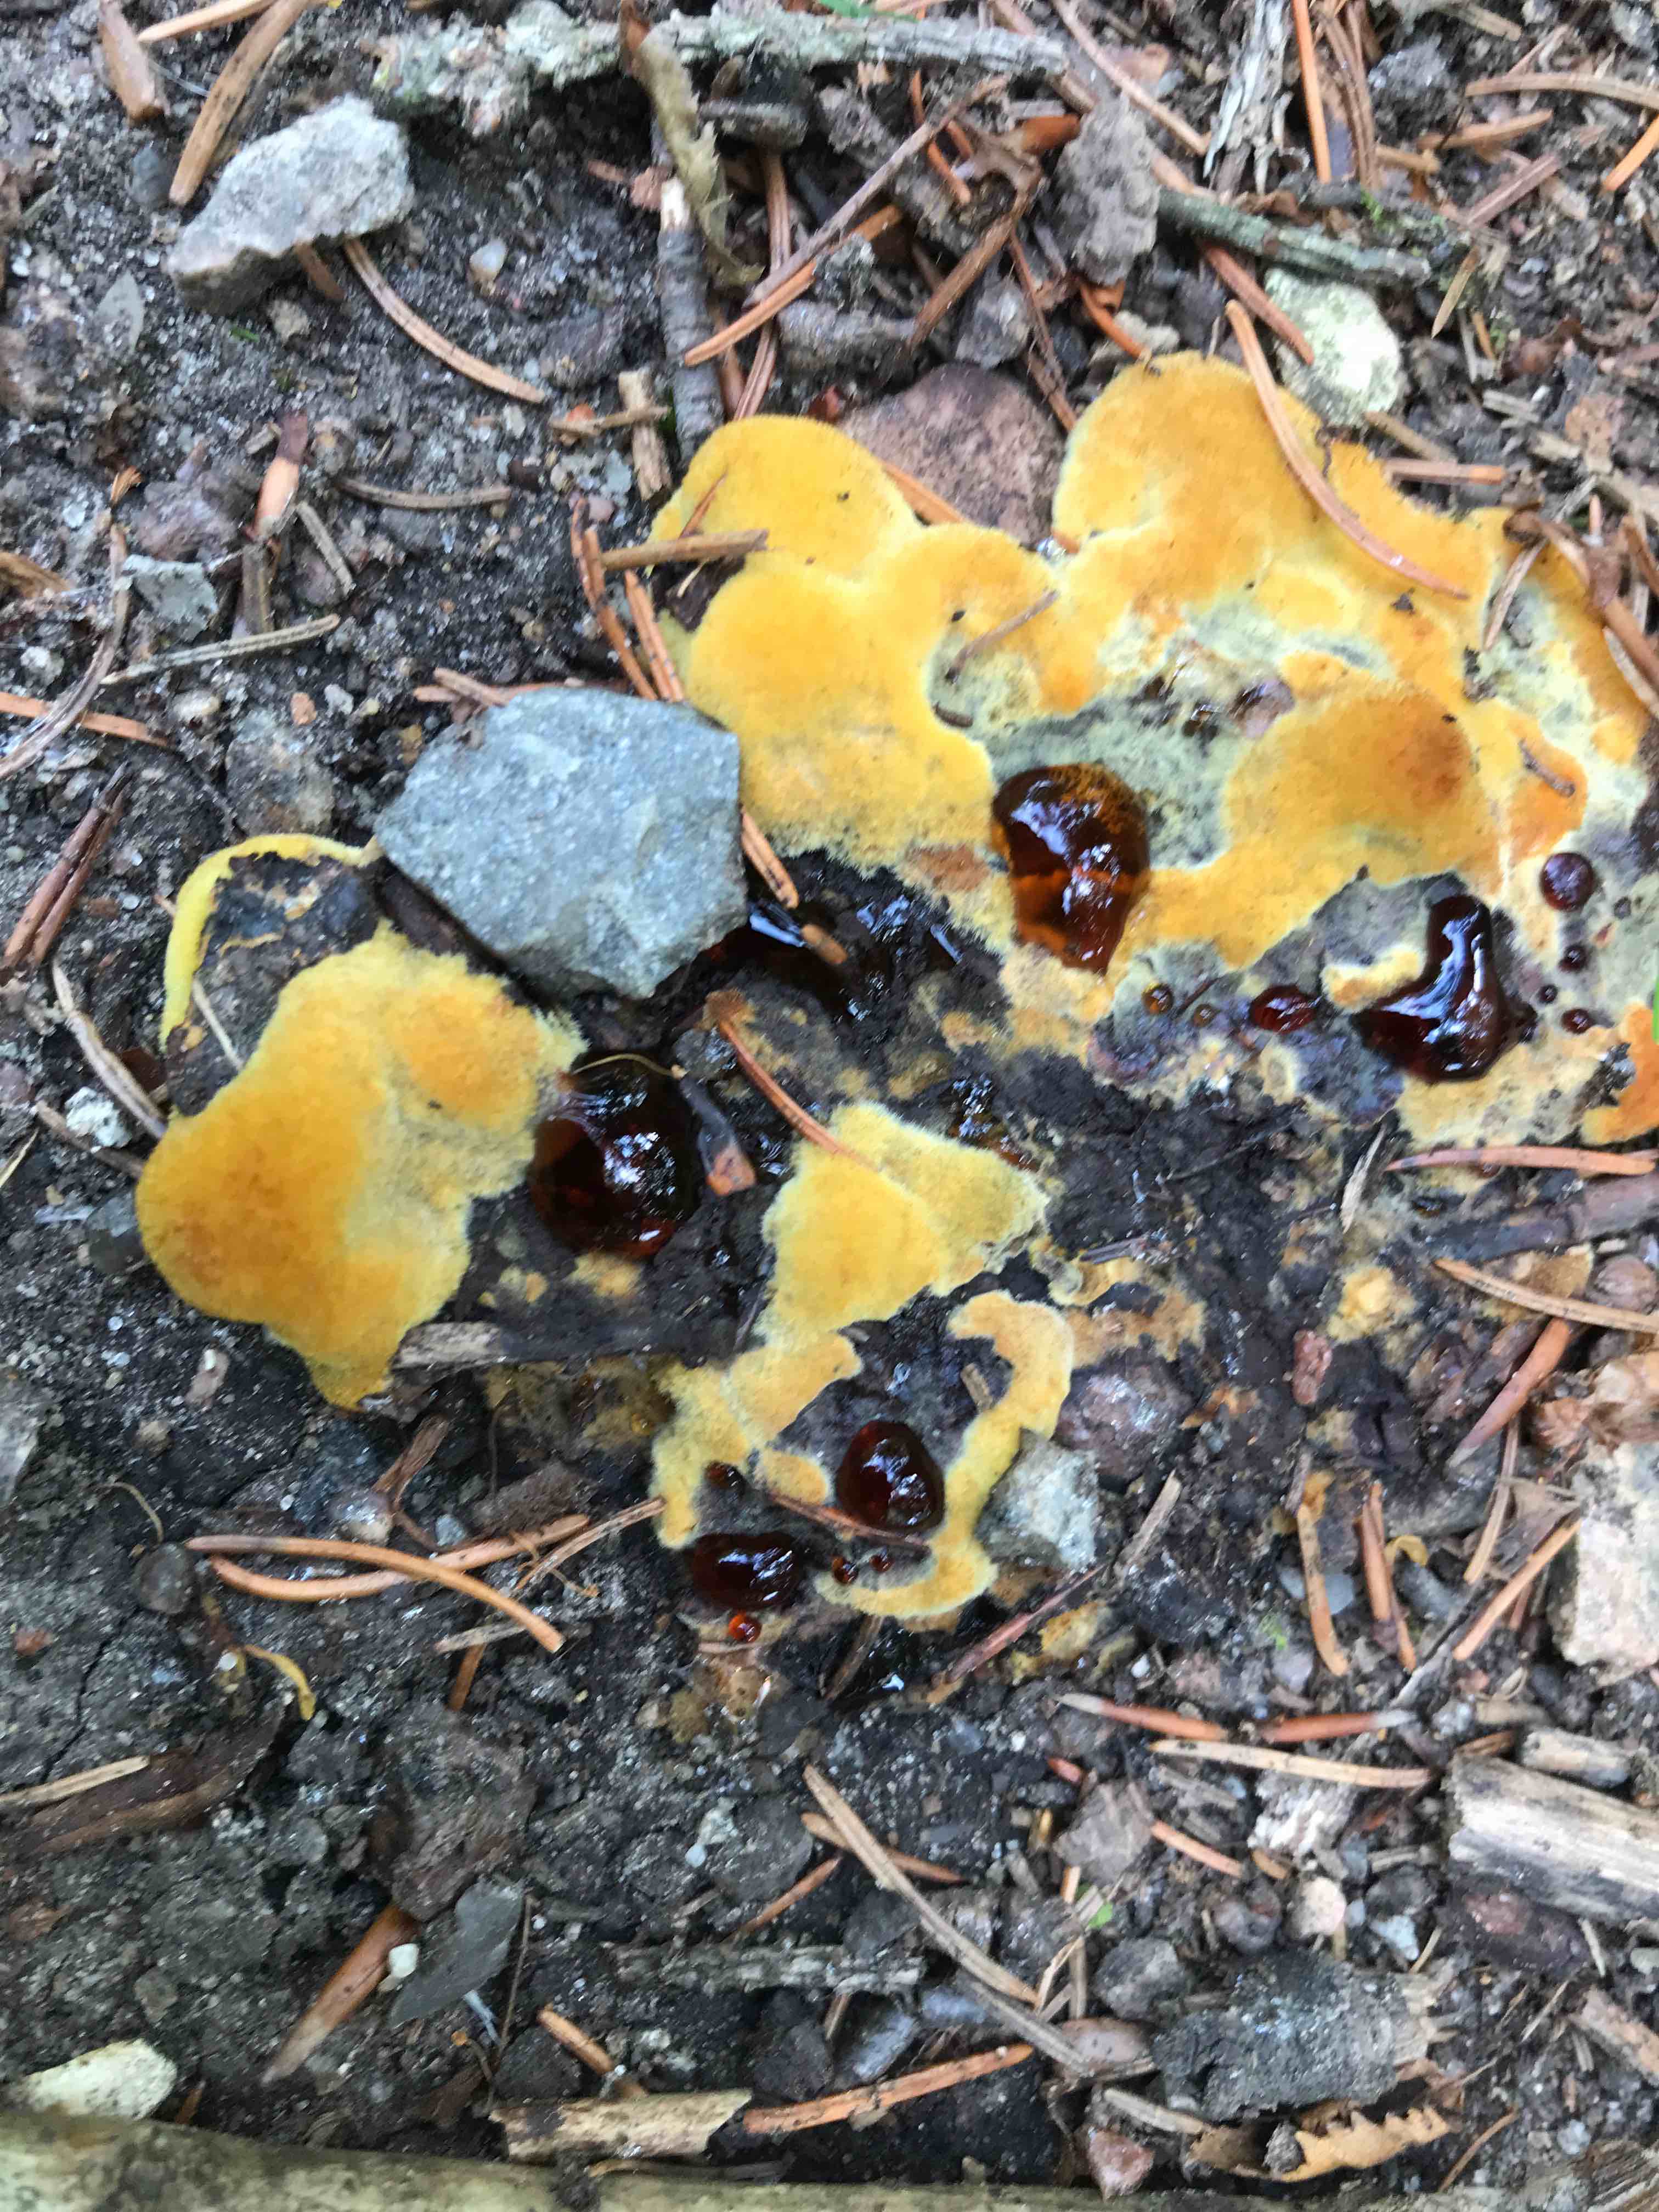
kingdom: Fungi
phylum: Basidiomycota
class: Agaricomycetes
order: Polyporales
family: Laetiporaceae
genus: Phaeolus
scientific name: Phaeolus schweinitzii
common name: brunporesvamp
